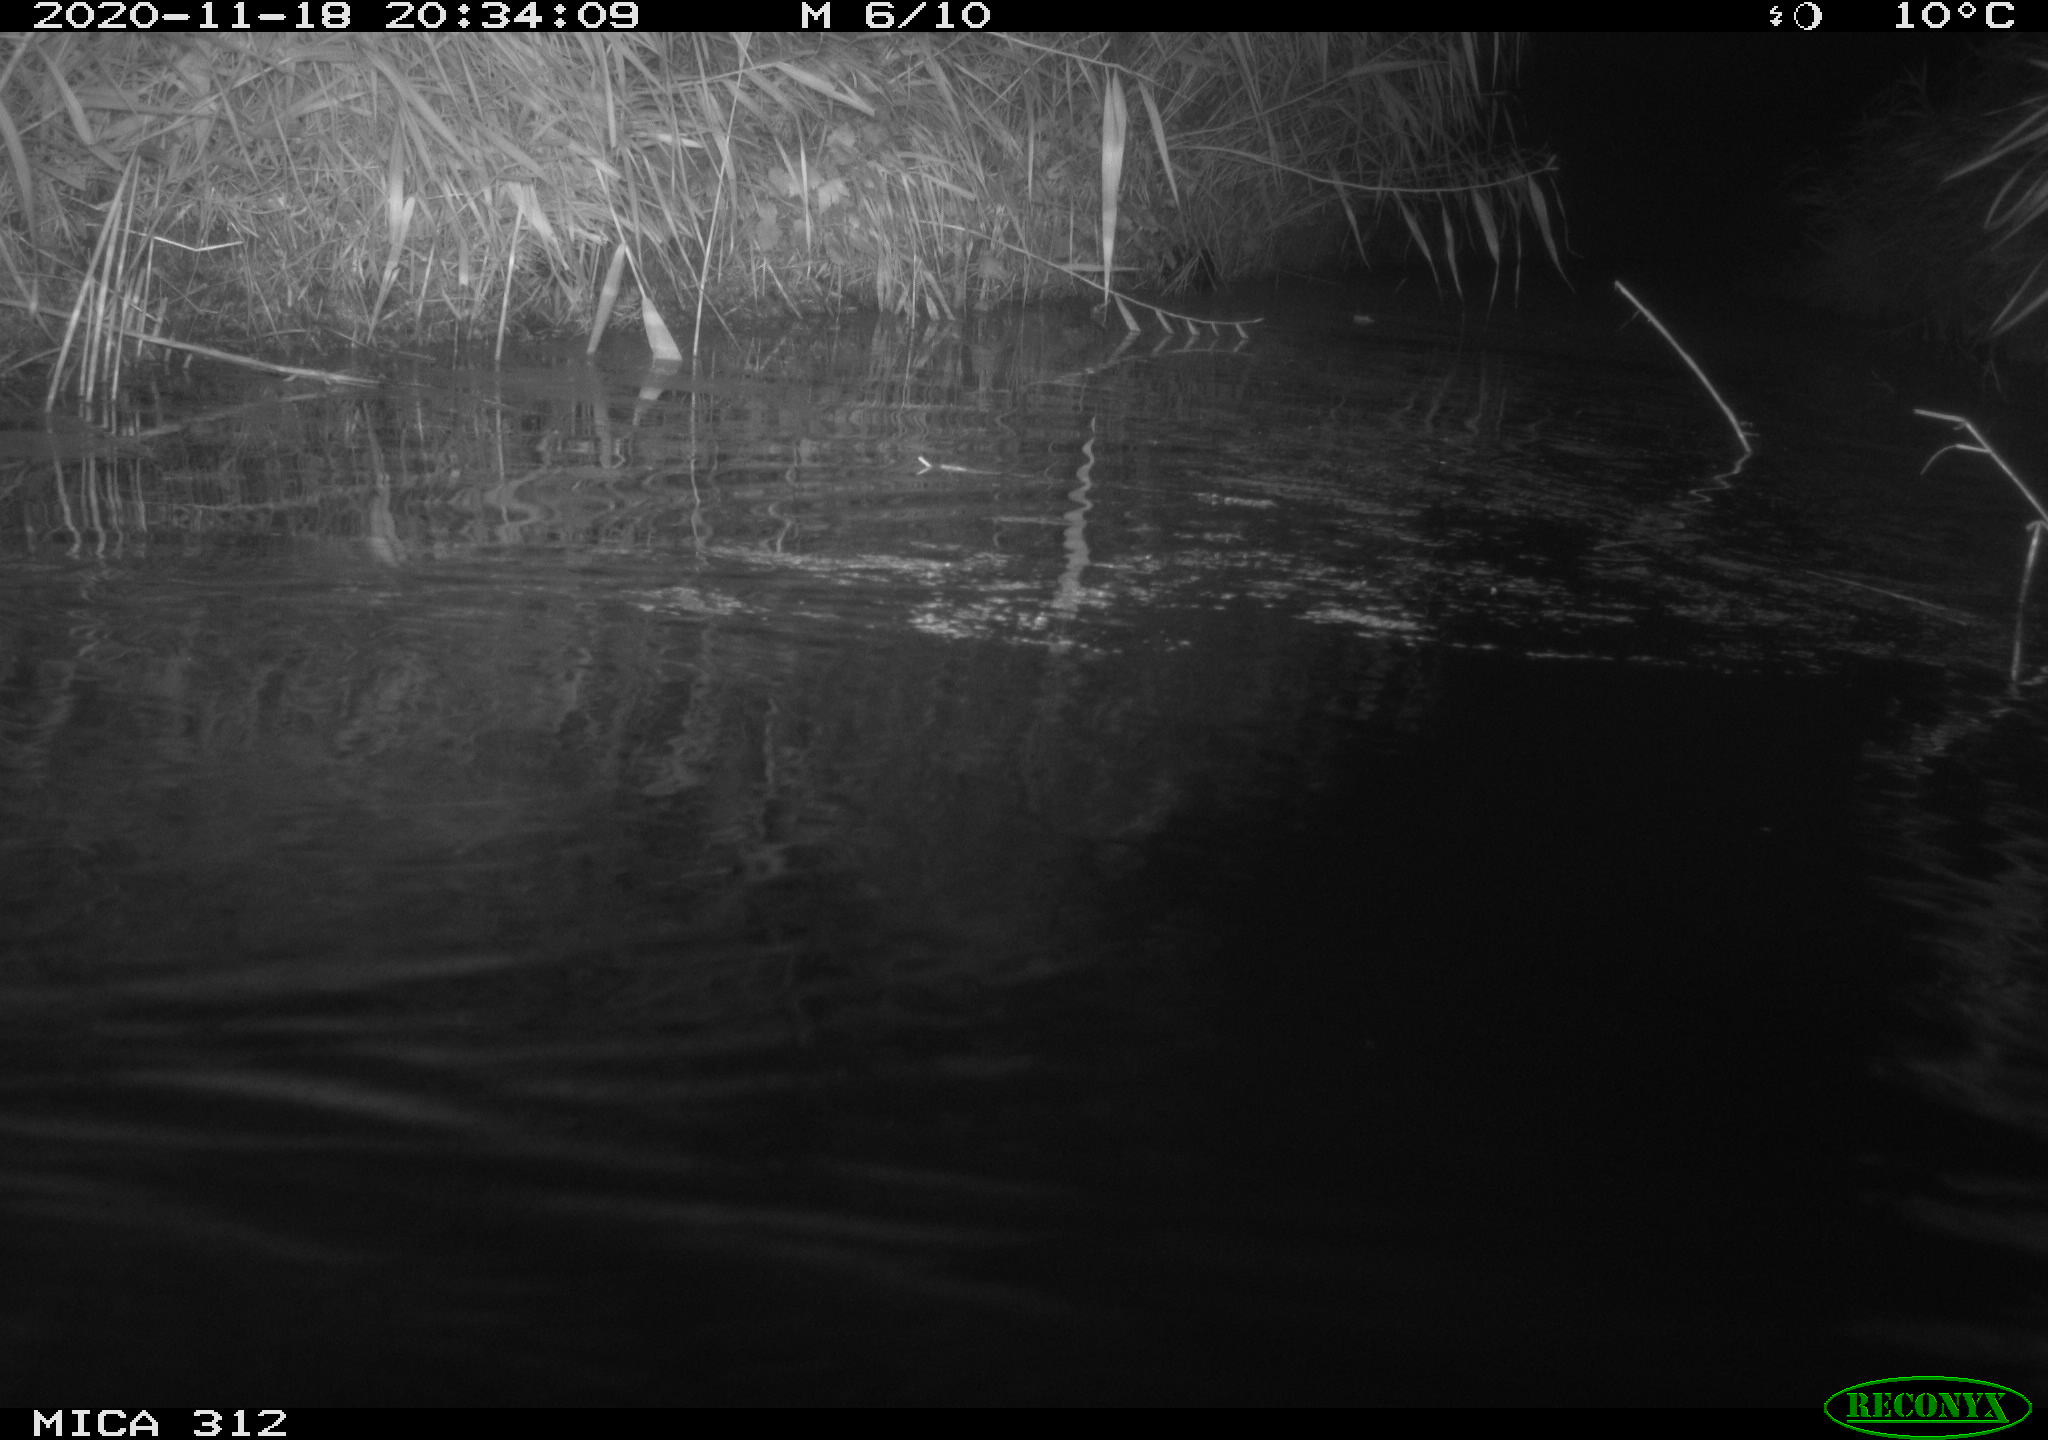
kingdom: Animalia
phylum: Chordata
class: Mammalia
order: Rodentia
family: Muridae
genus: Rattus
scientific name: Rattus norvegicus
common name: Brown rat
